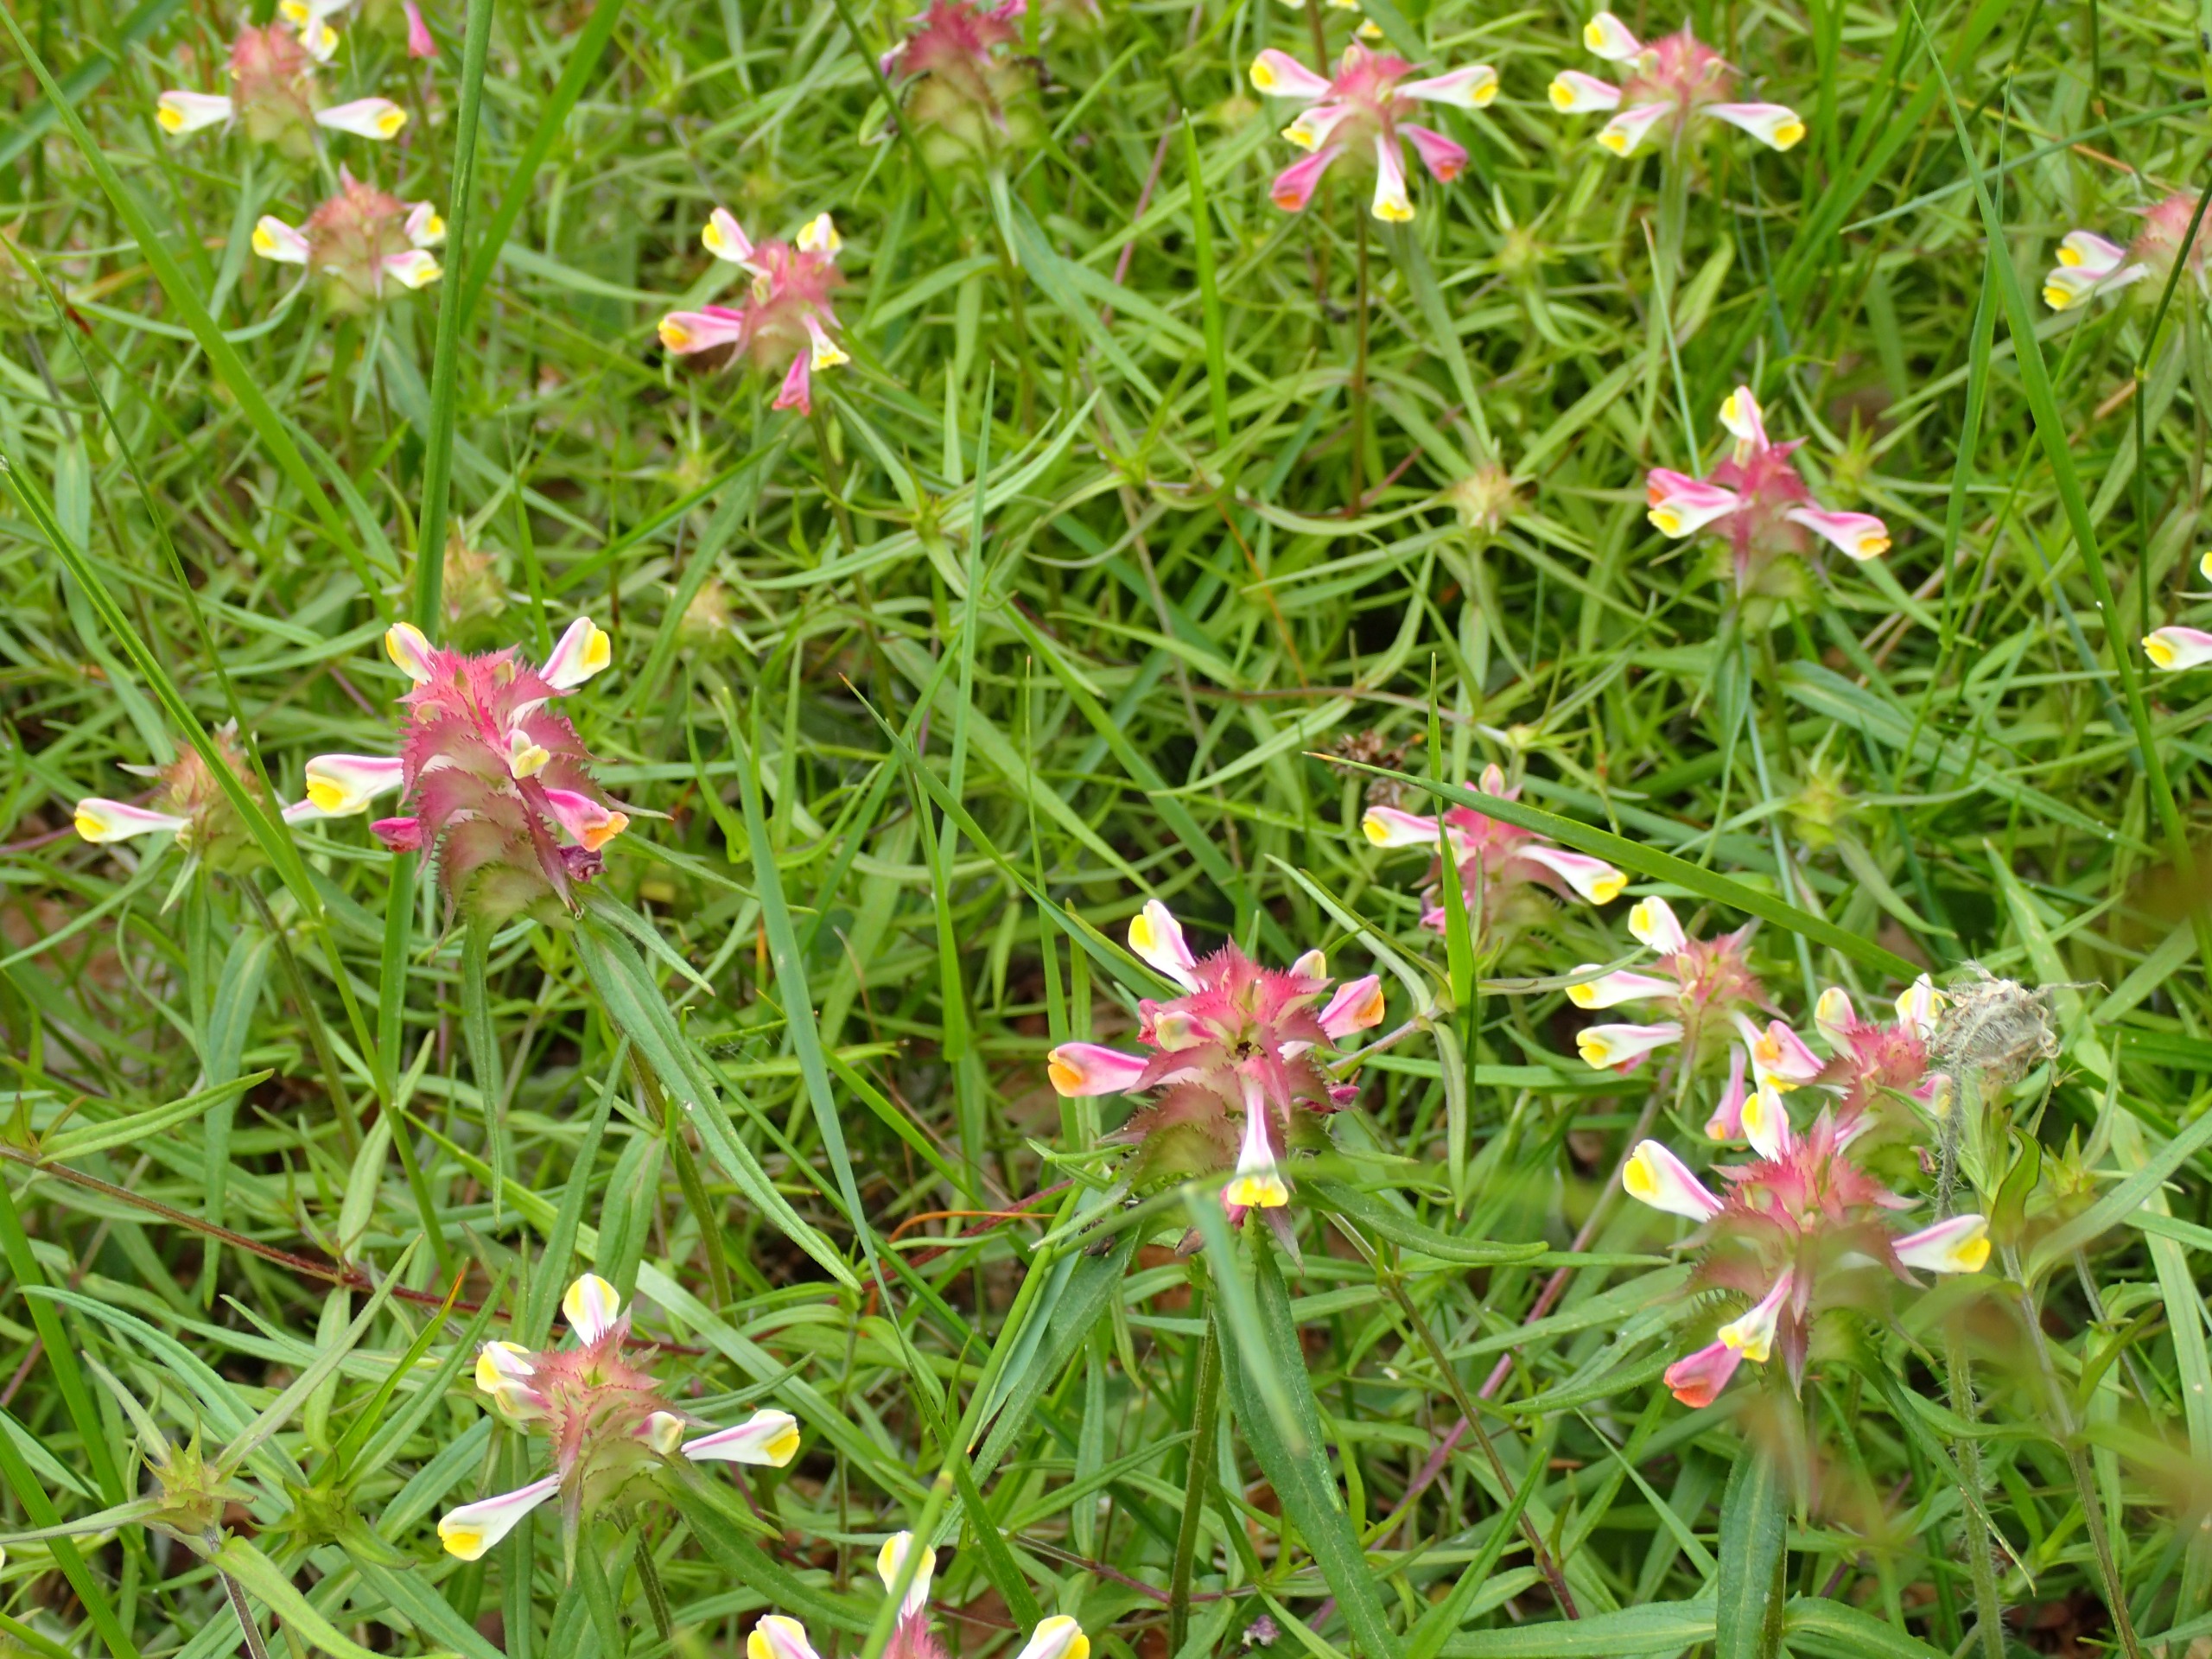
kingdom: Plantae
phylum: Tracheophyta
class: Magnoliopsida
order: Lamiales
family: Orobanchaceae
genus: Melampyrum
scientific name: Melampyrum cristatum
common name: Kantet kohvede
